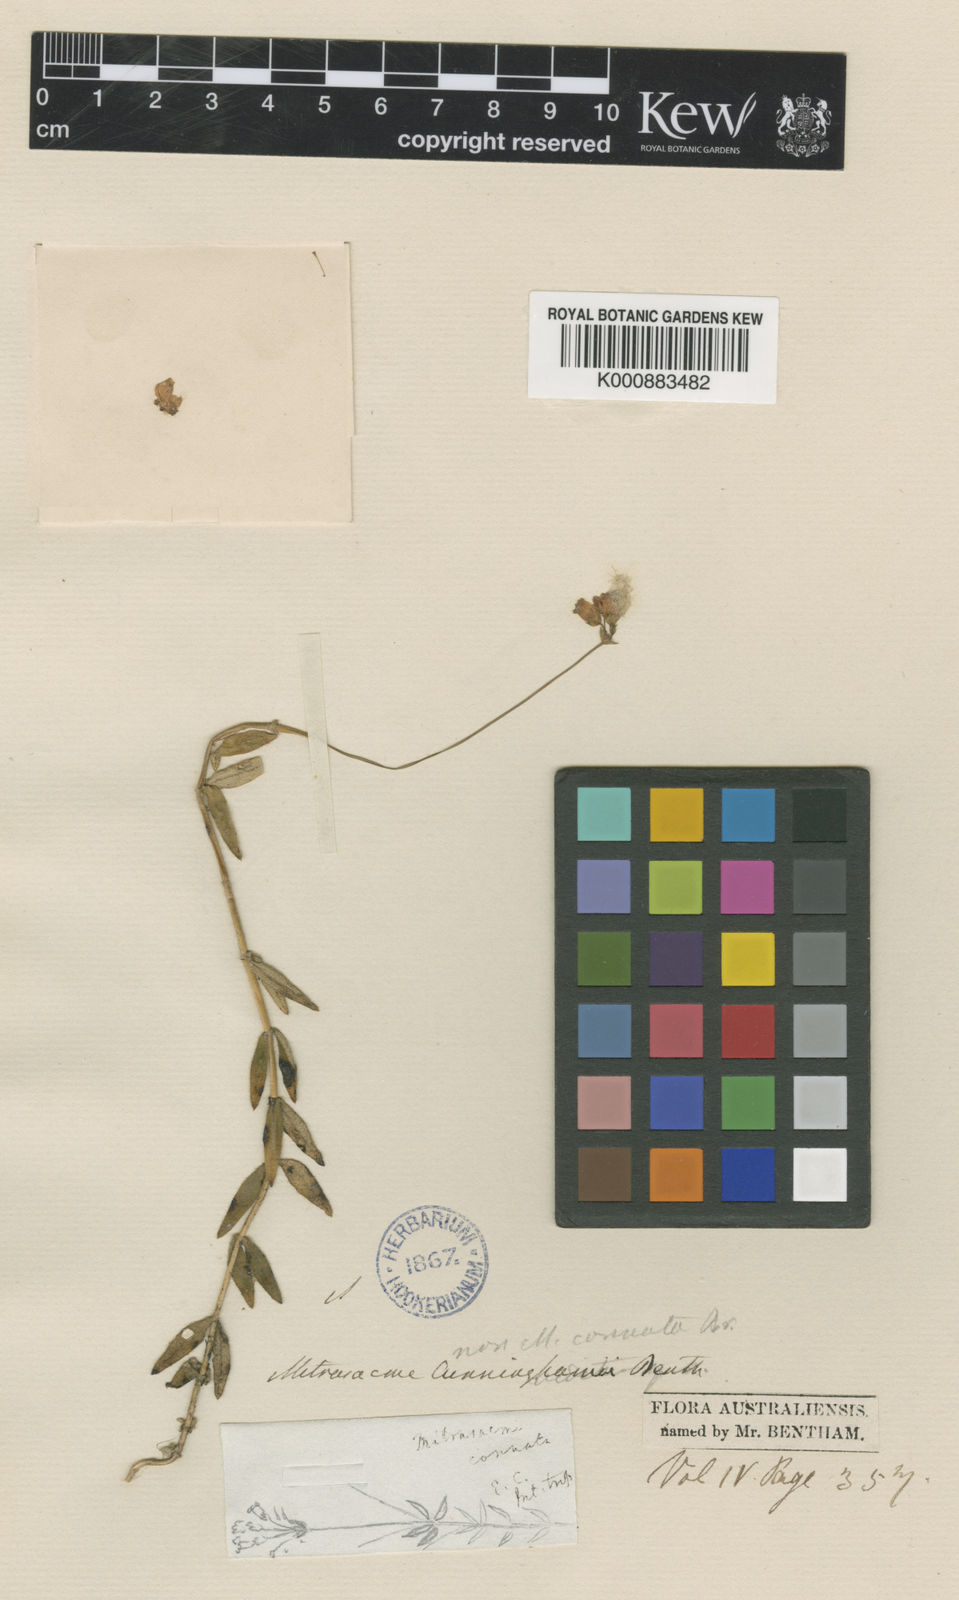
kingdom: Plantae
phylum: Tracheophyta
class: Magnoliopsida
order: Gentianales
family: Loganiaceae
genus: Mitrasacme
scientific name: Mitrasacme stellata
